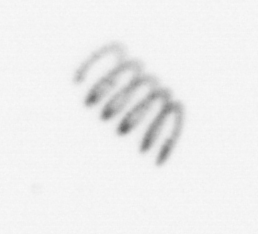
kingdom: Chromista
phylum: Ochrophyta
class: Bacillariophyceae
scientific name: Bacillariophyceae
